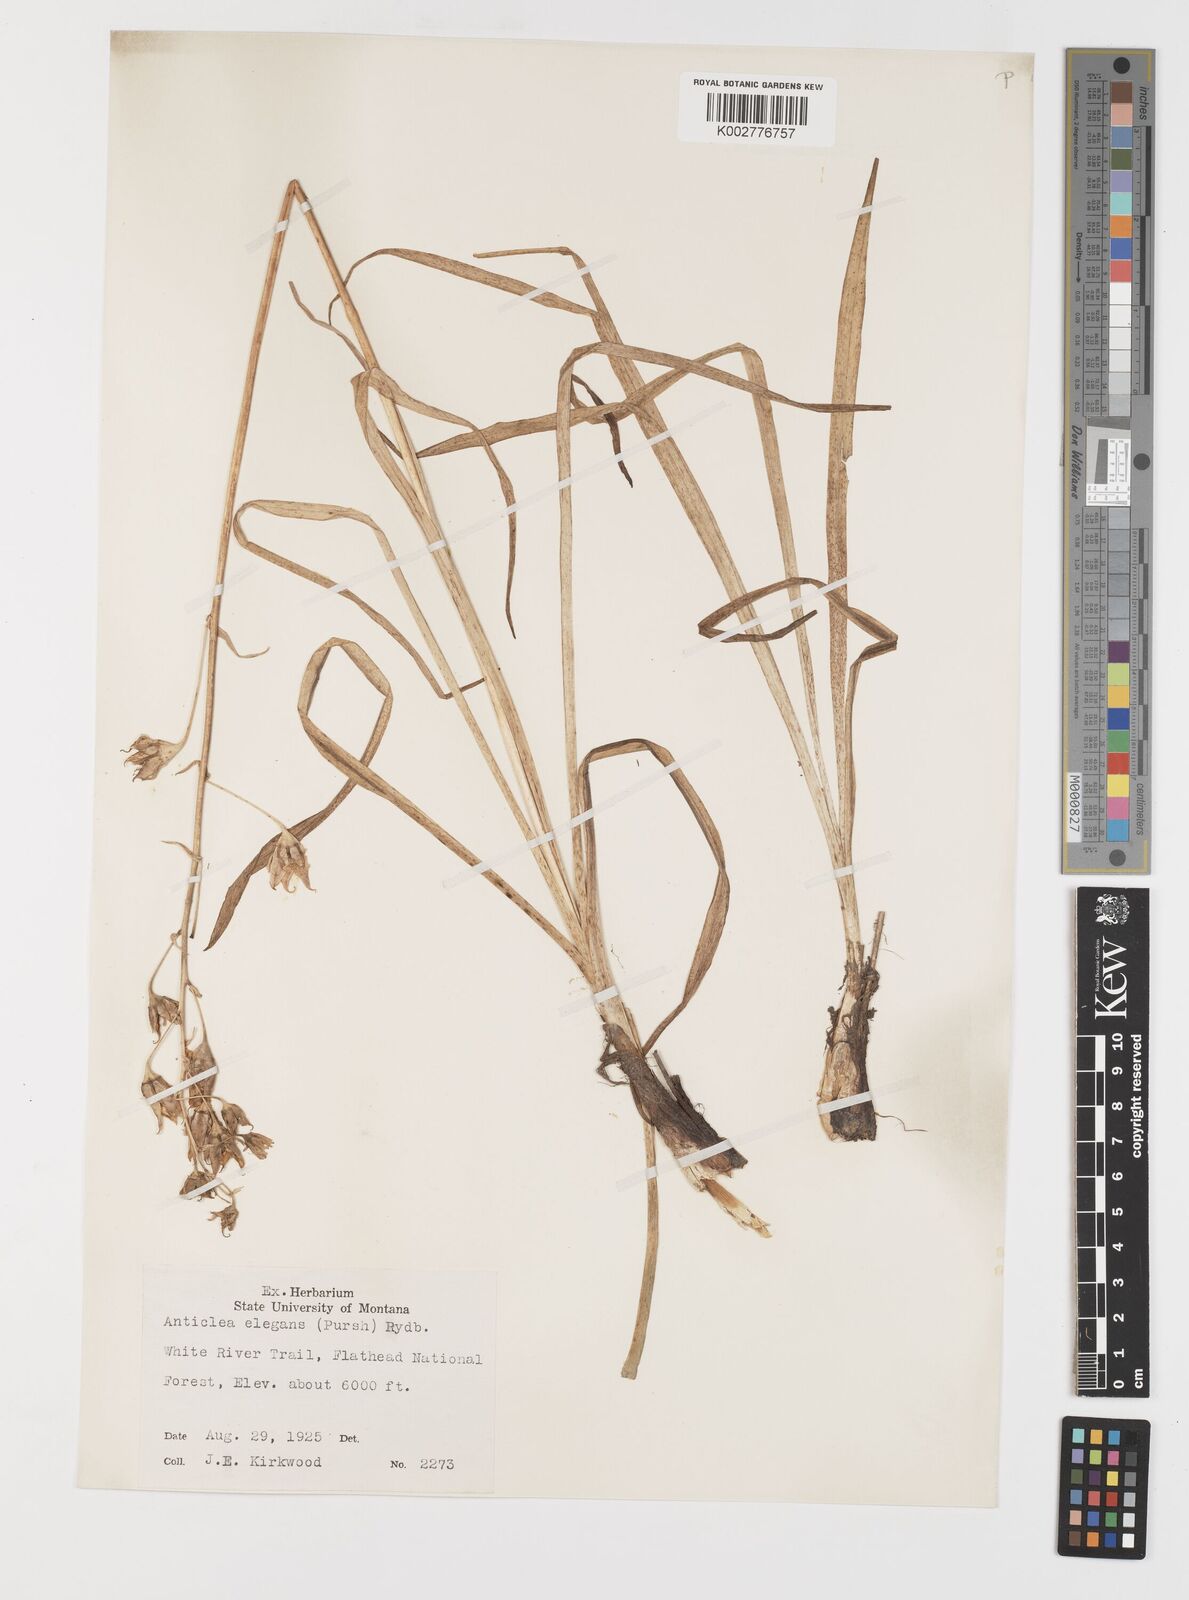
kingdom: Plantae
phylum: Tracheophyta
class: Liliopsida
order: Liliales
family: Melanthiaceae
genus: Anticlea
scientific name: Anticlea elegans
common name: Mountain death camas
